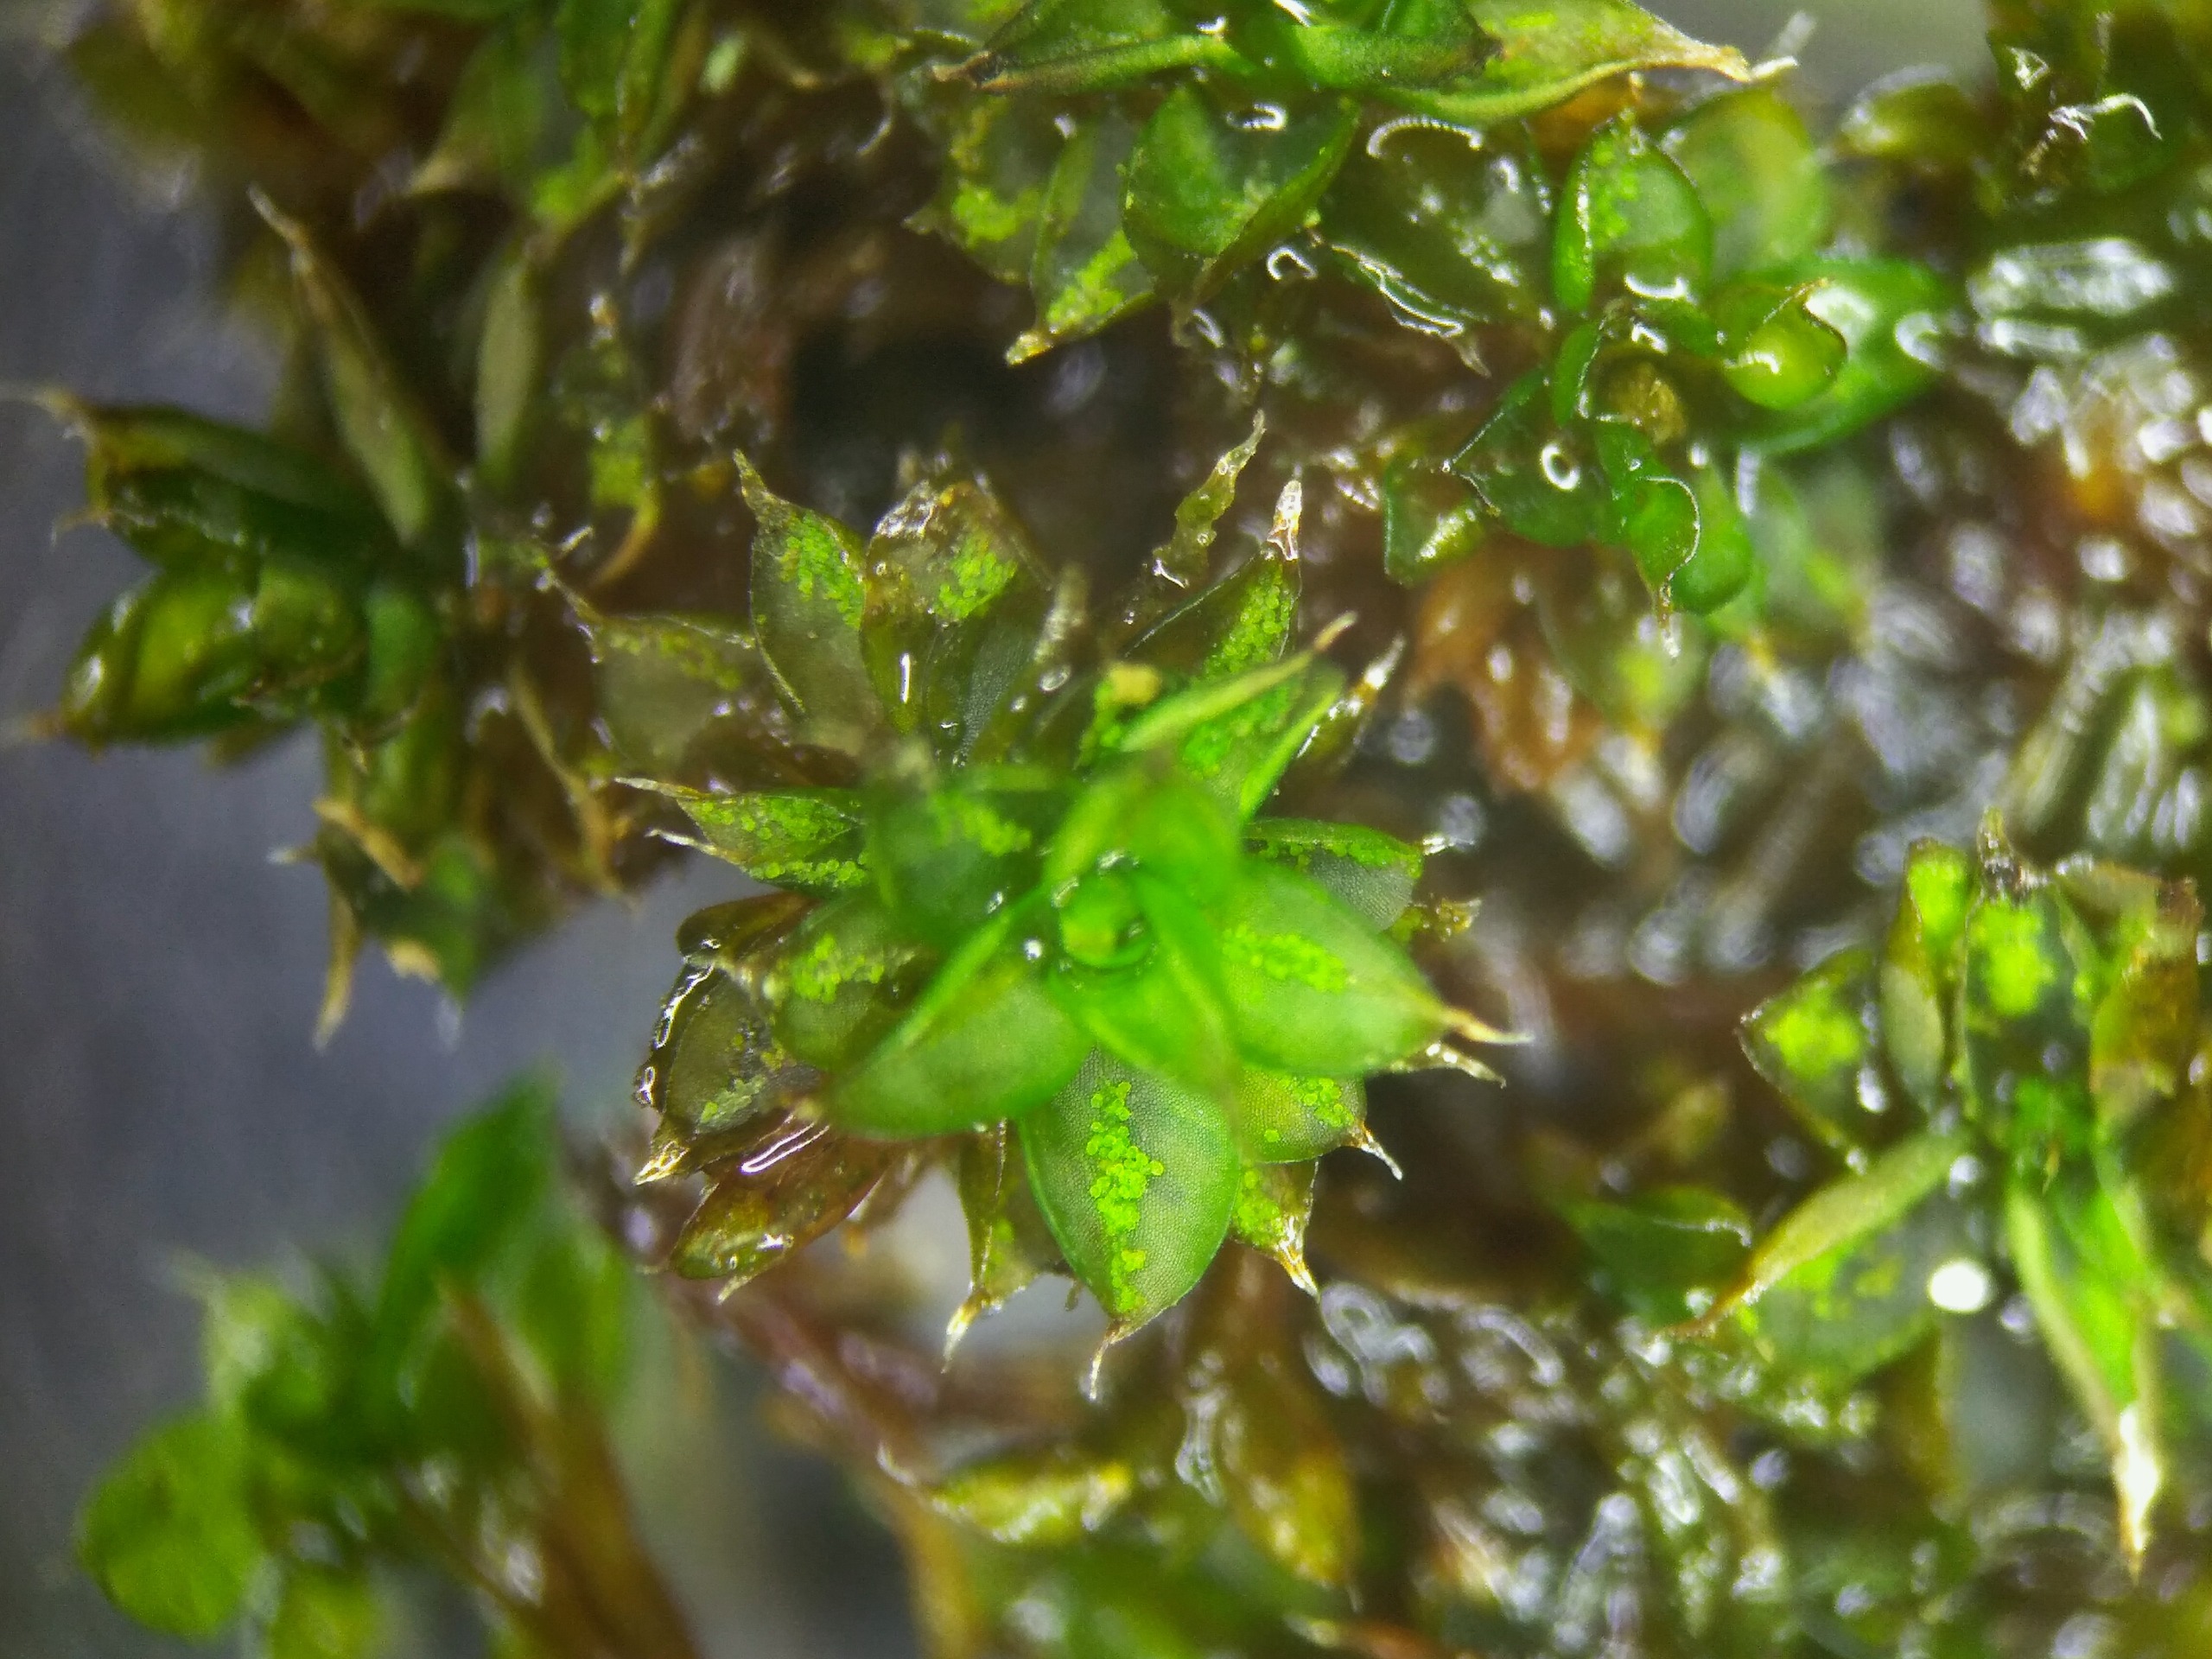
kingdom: Plantae
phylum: Bryophyta
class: Bryopsida
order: Pottiales
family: Pottiaceae
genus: Syntrichia
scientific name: Syntrichia papillosa
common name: Bark-hårstjerne
